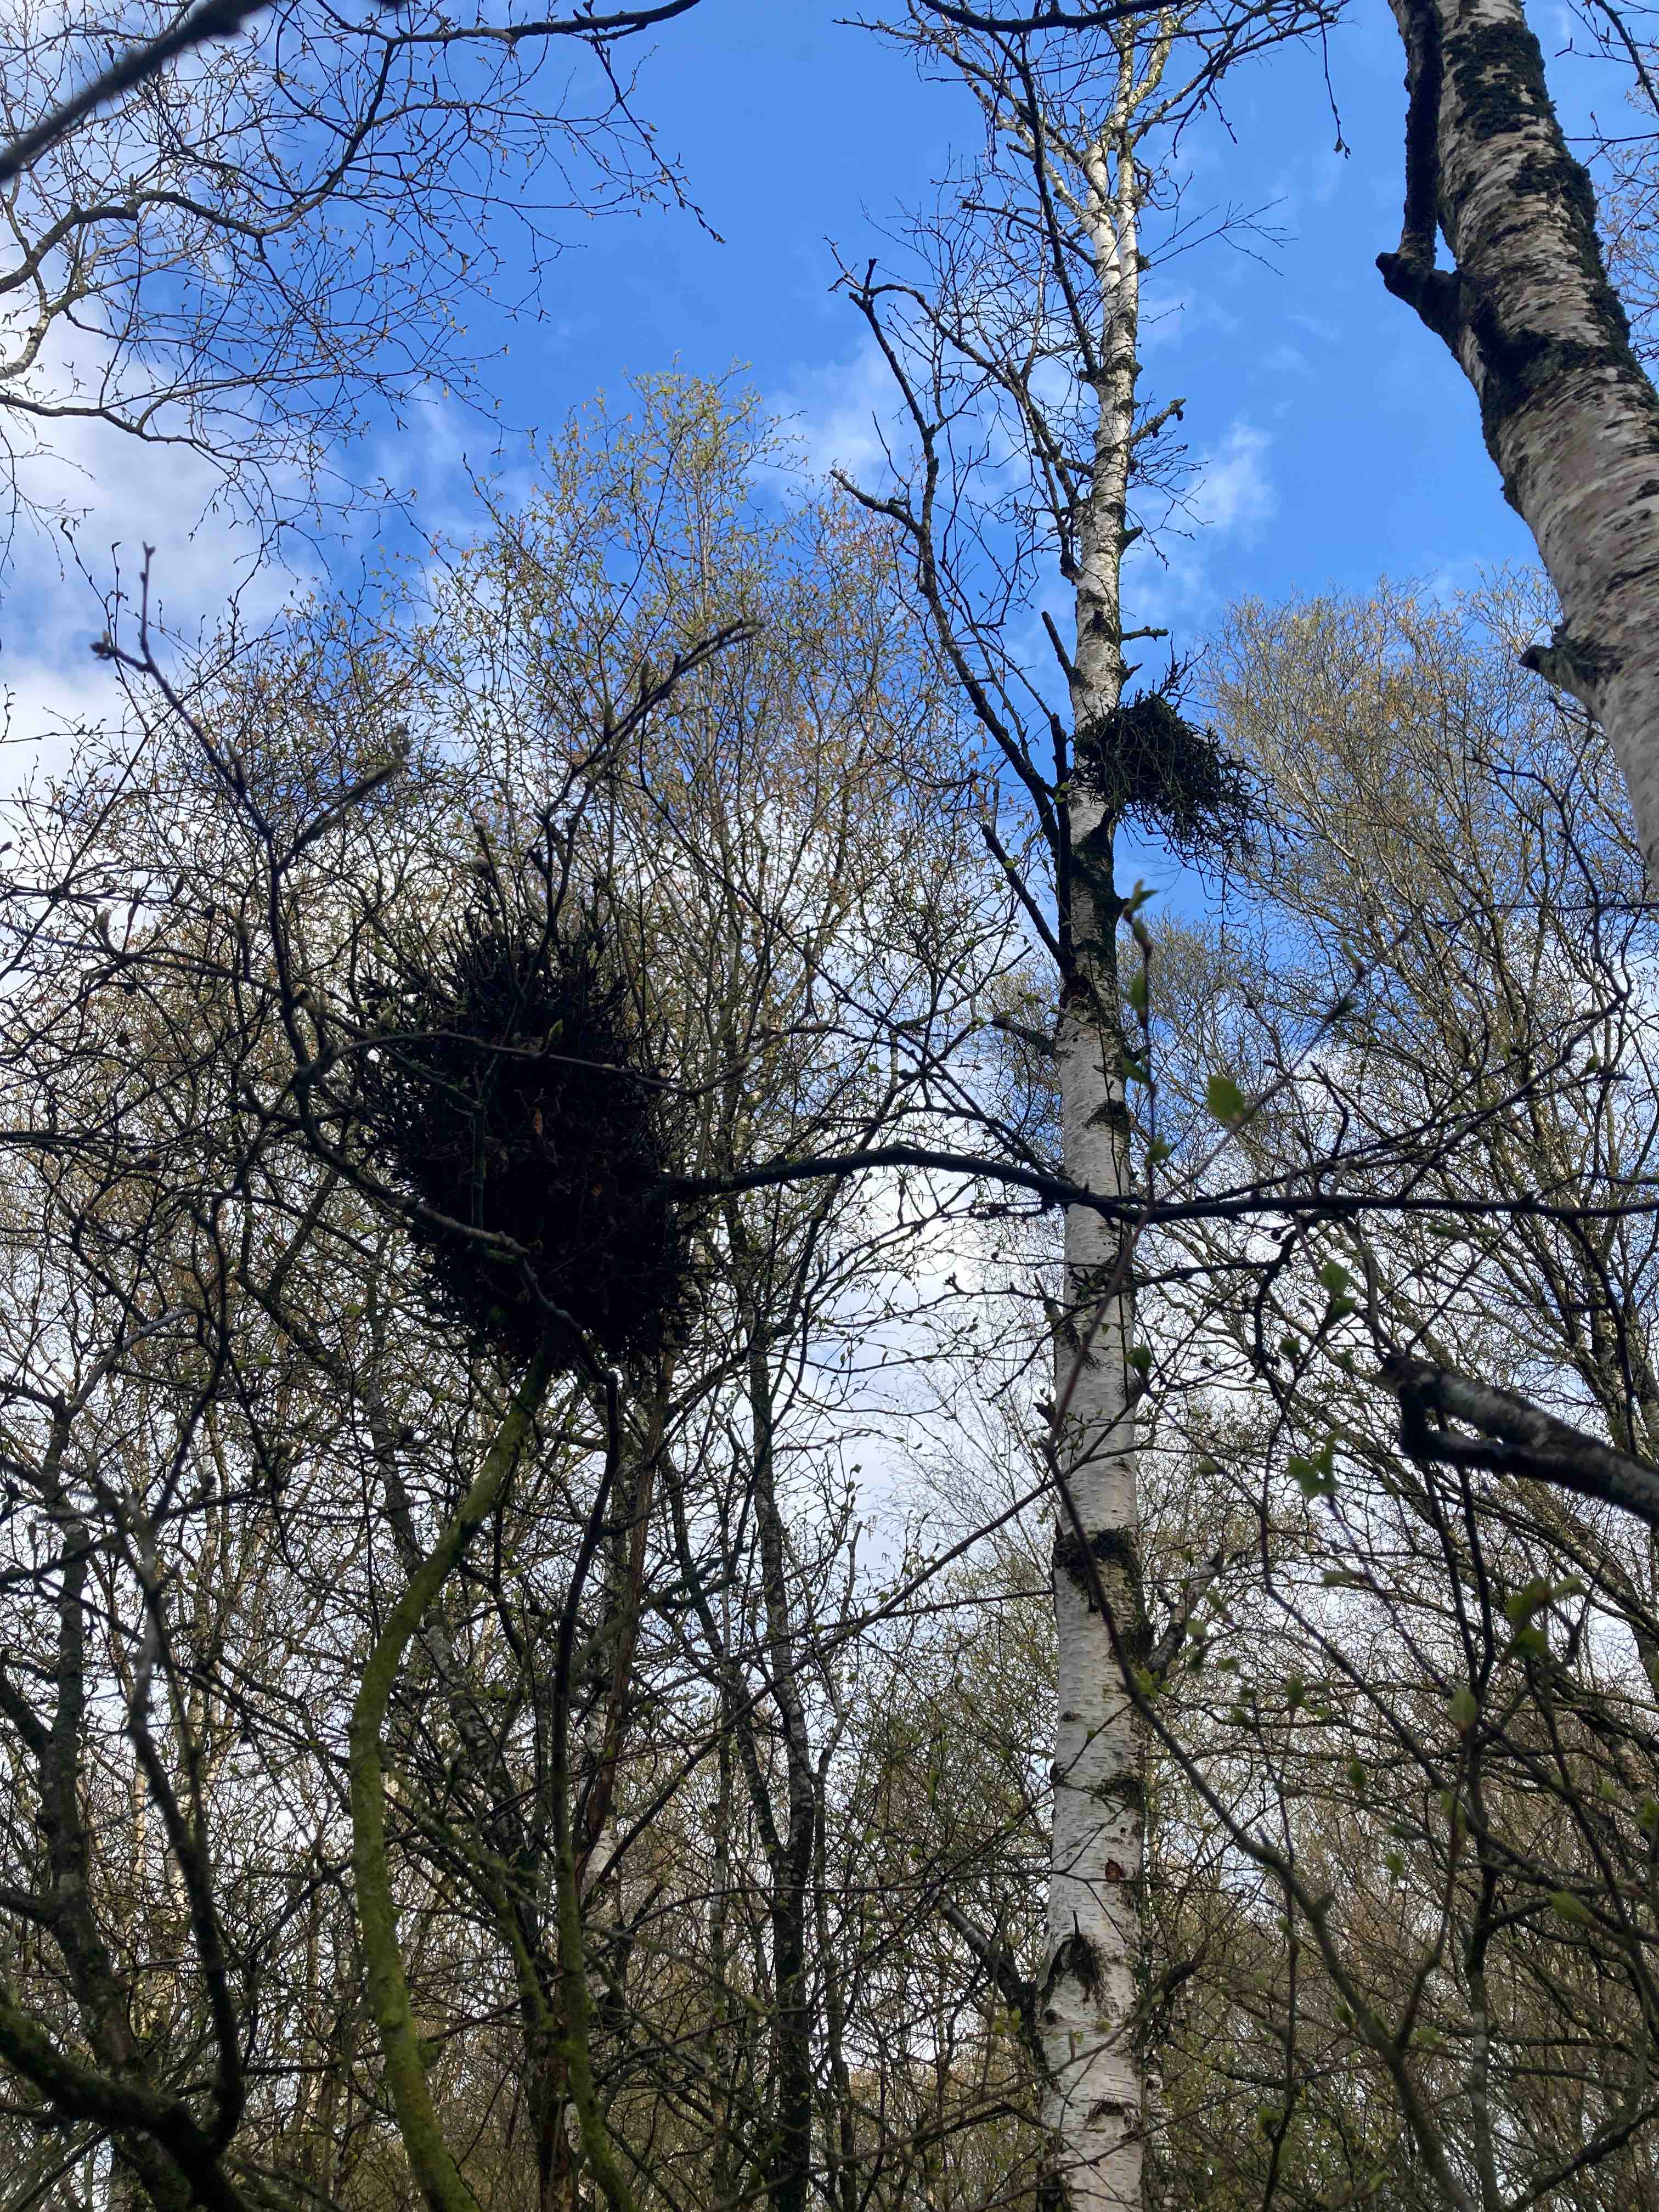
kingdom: Fungi
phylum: Ascomycota
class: Taphrinomycetes
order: Taphrinales
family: Taphrinaceae
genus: Taphrina
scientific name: Taphrina betulina
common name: hekse-sækdug
